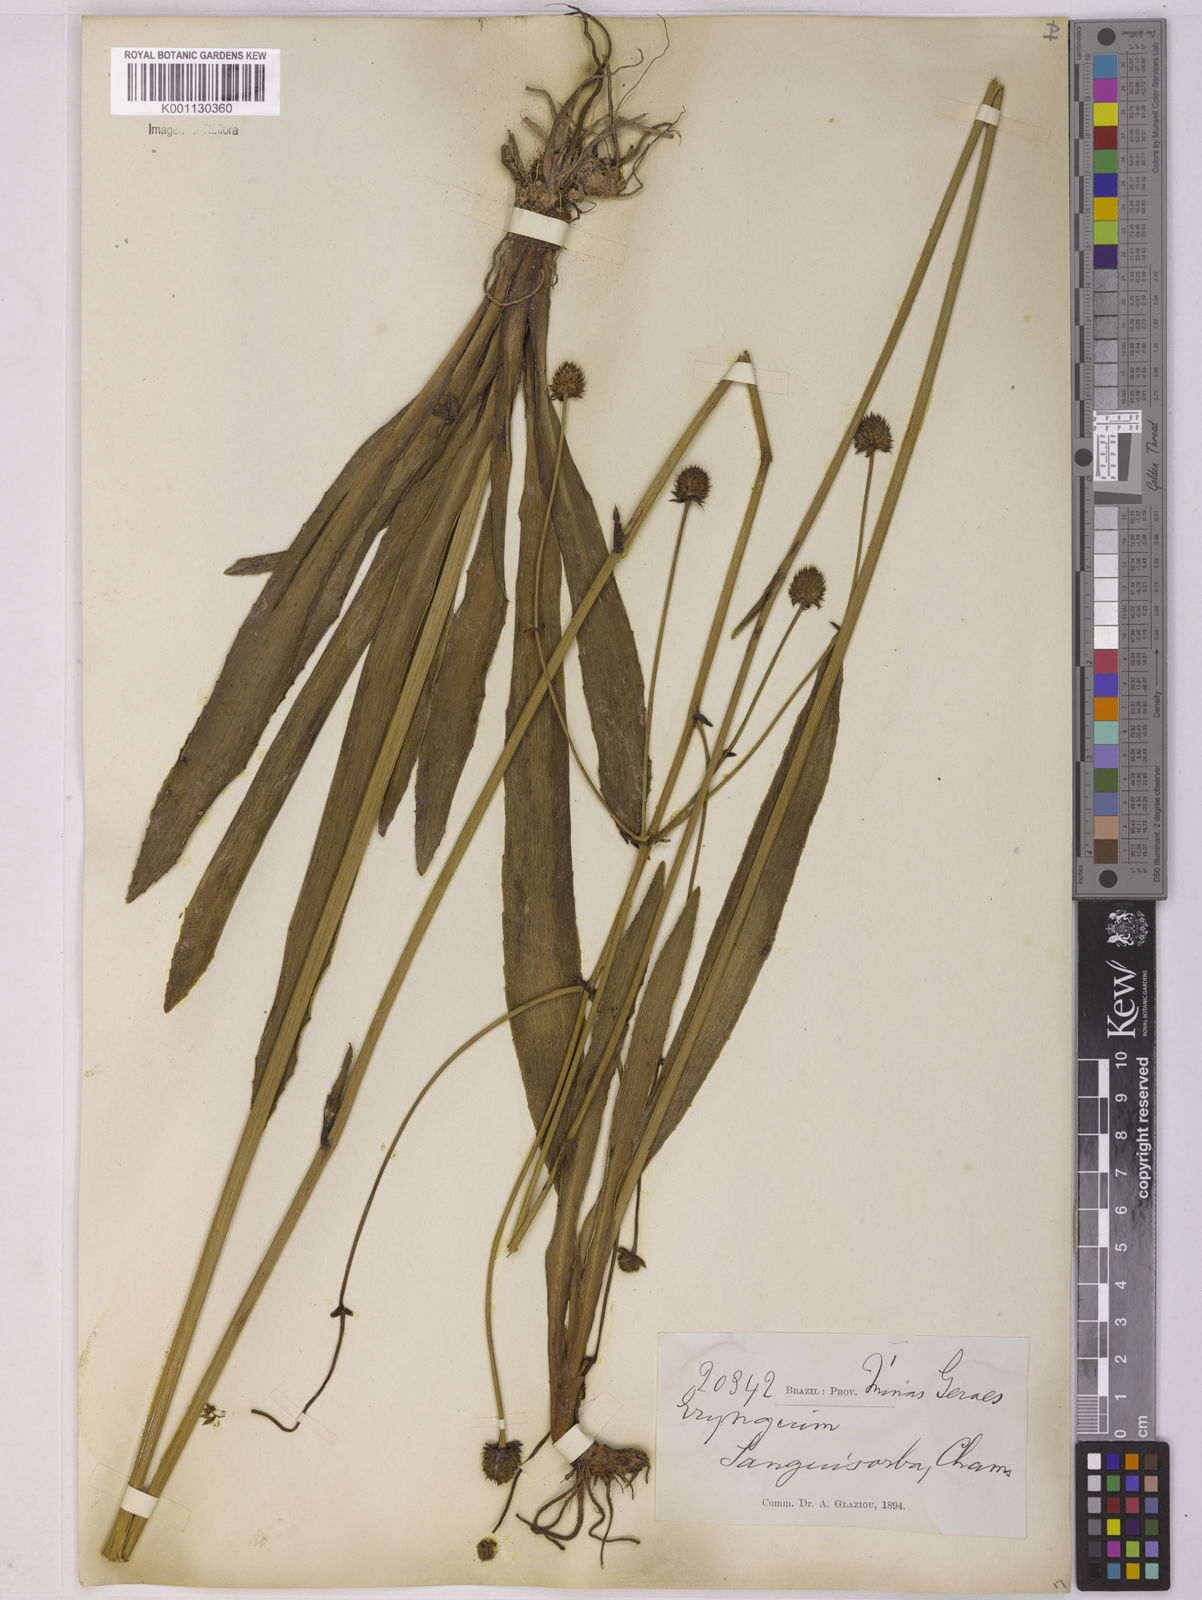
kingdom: Plantae
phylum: Tracheophyta
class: Magnoliopsida
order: Apiales
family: Apiaceae
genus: Eryngium
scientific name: Eryngium sanguisorba
